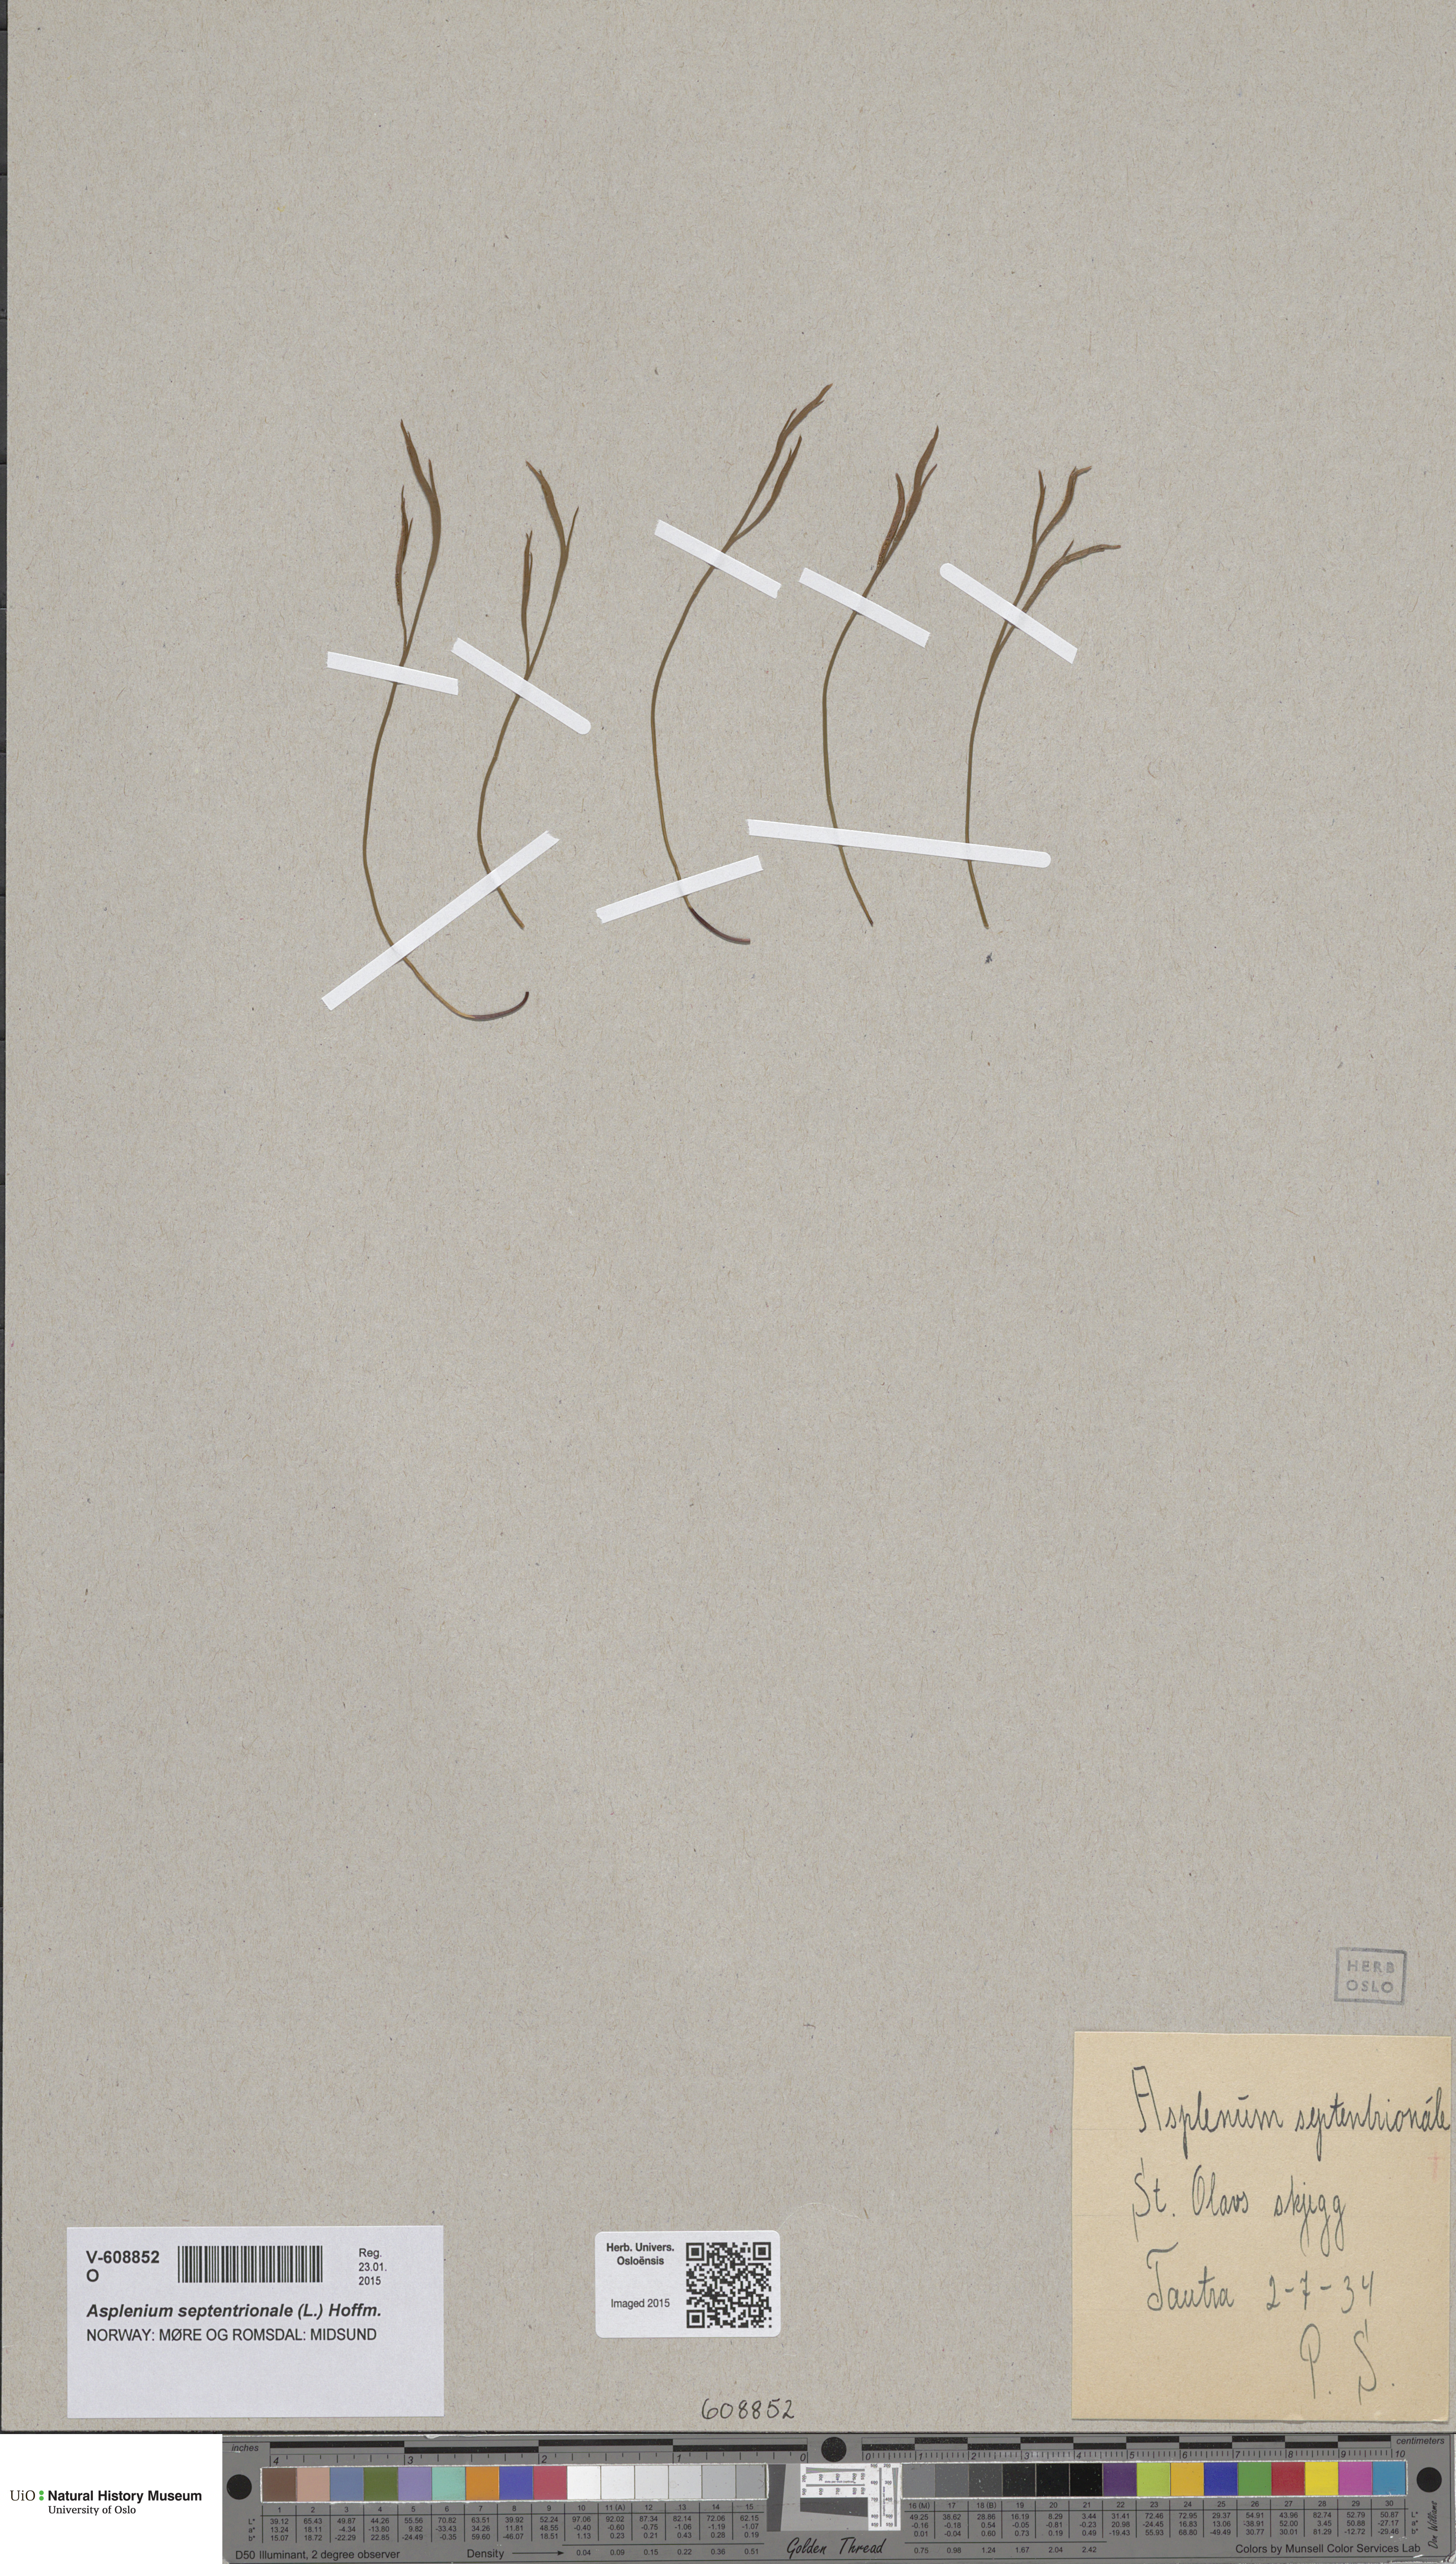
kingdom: Plantae
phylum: Tracheophyta
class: Polypodiopsida
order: Polypodiales
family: Aspleniaceae
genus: Asplenium
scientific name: Asplenium septentrionale
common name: Forked spleenwort
